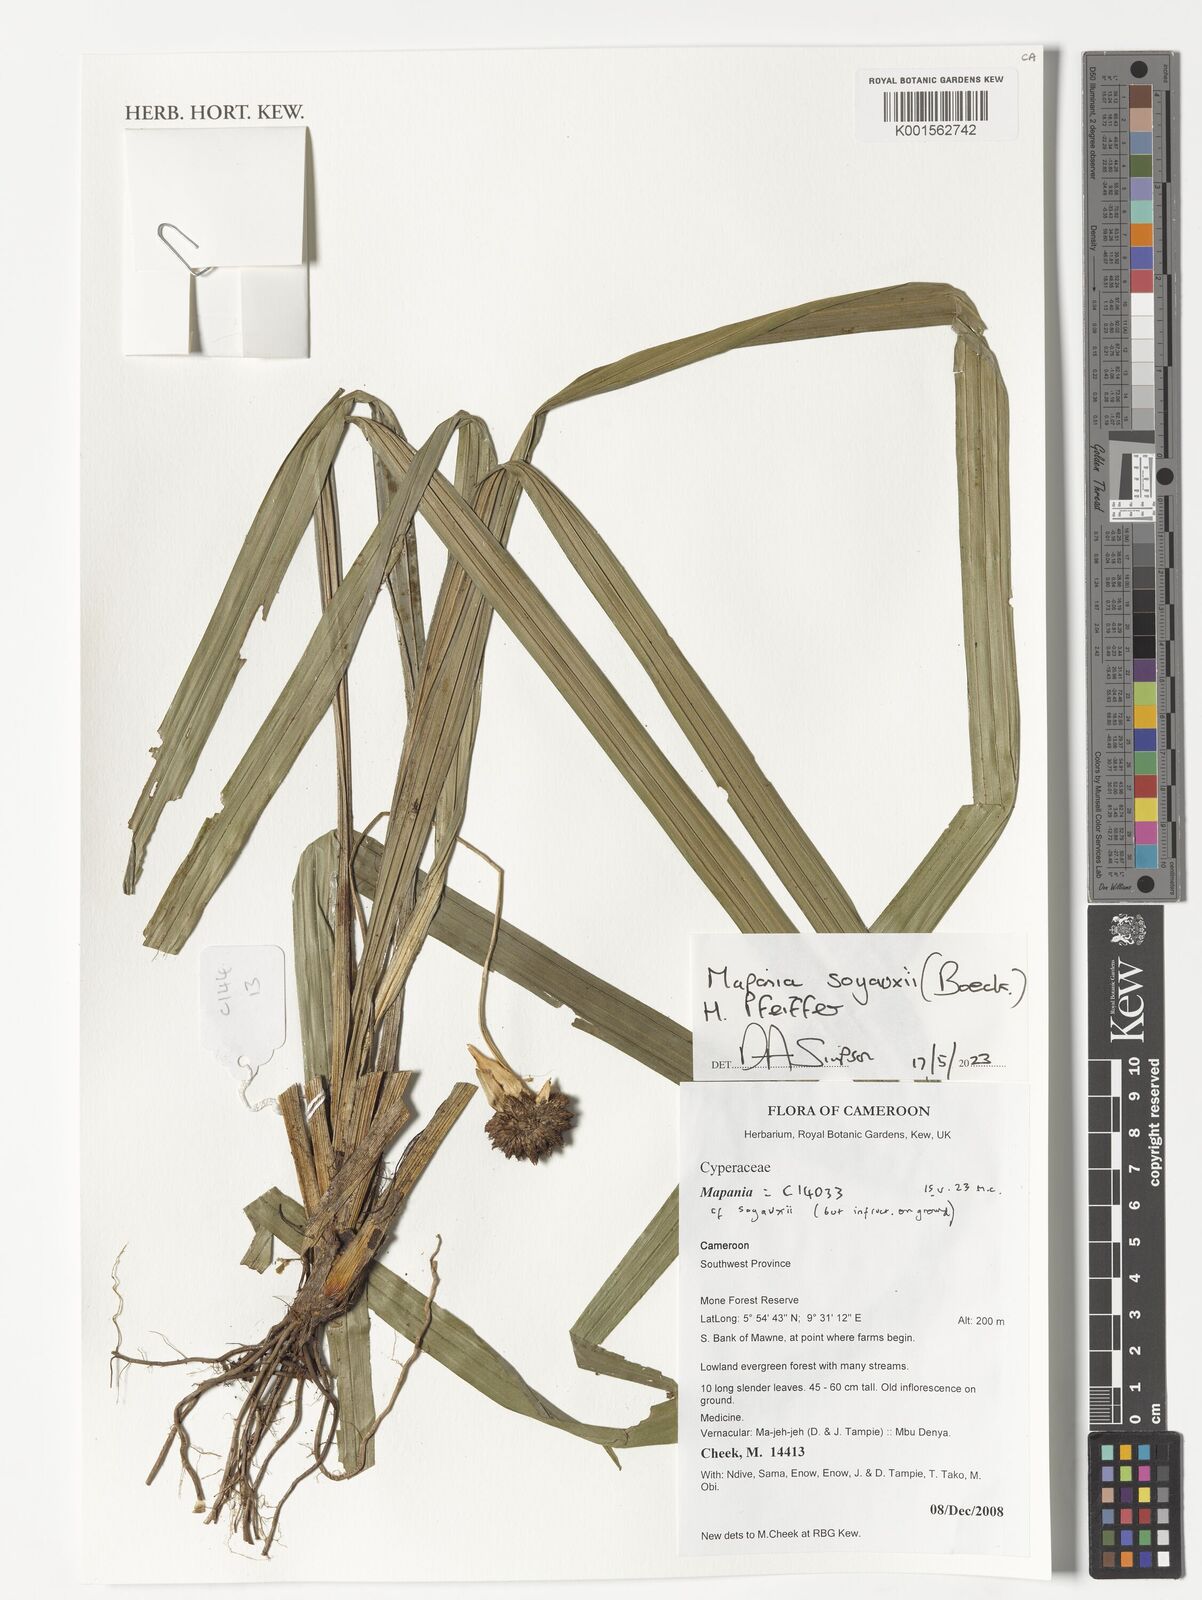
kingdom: Plantae
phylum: Tracheophyta
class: Liliopsida
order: Poales
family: Cyperaceae
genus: Mapania
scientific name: Mapania soyauxii
